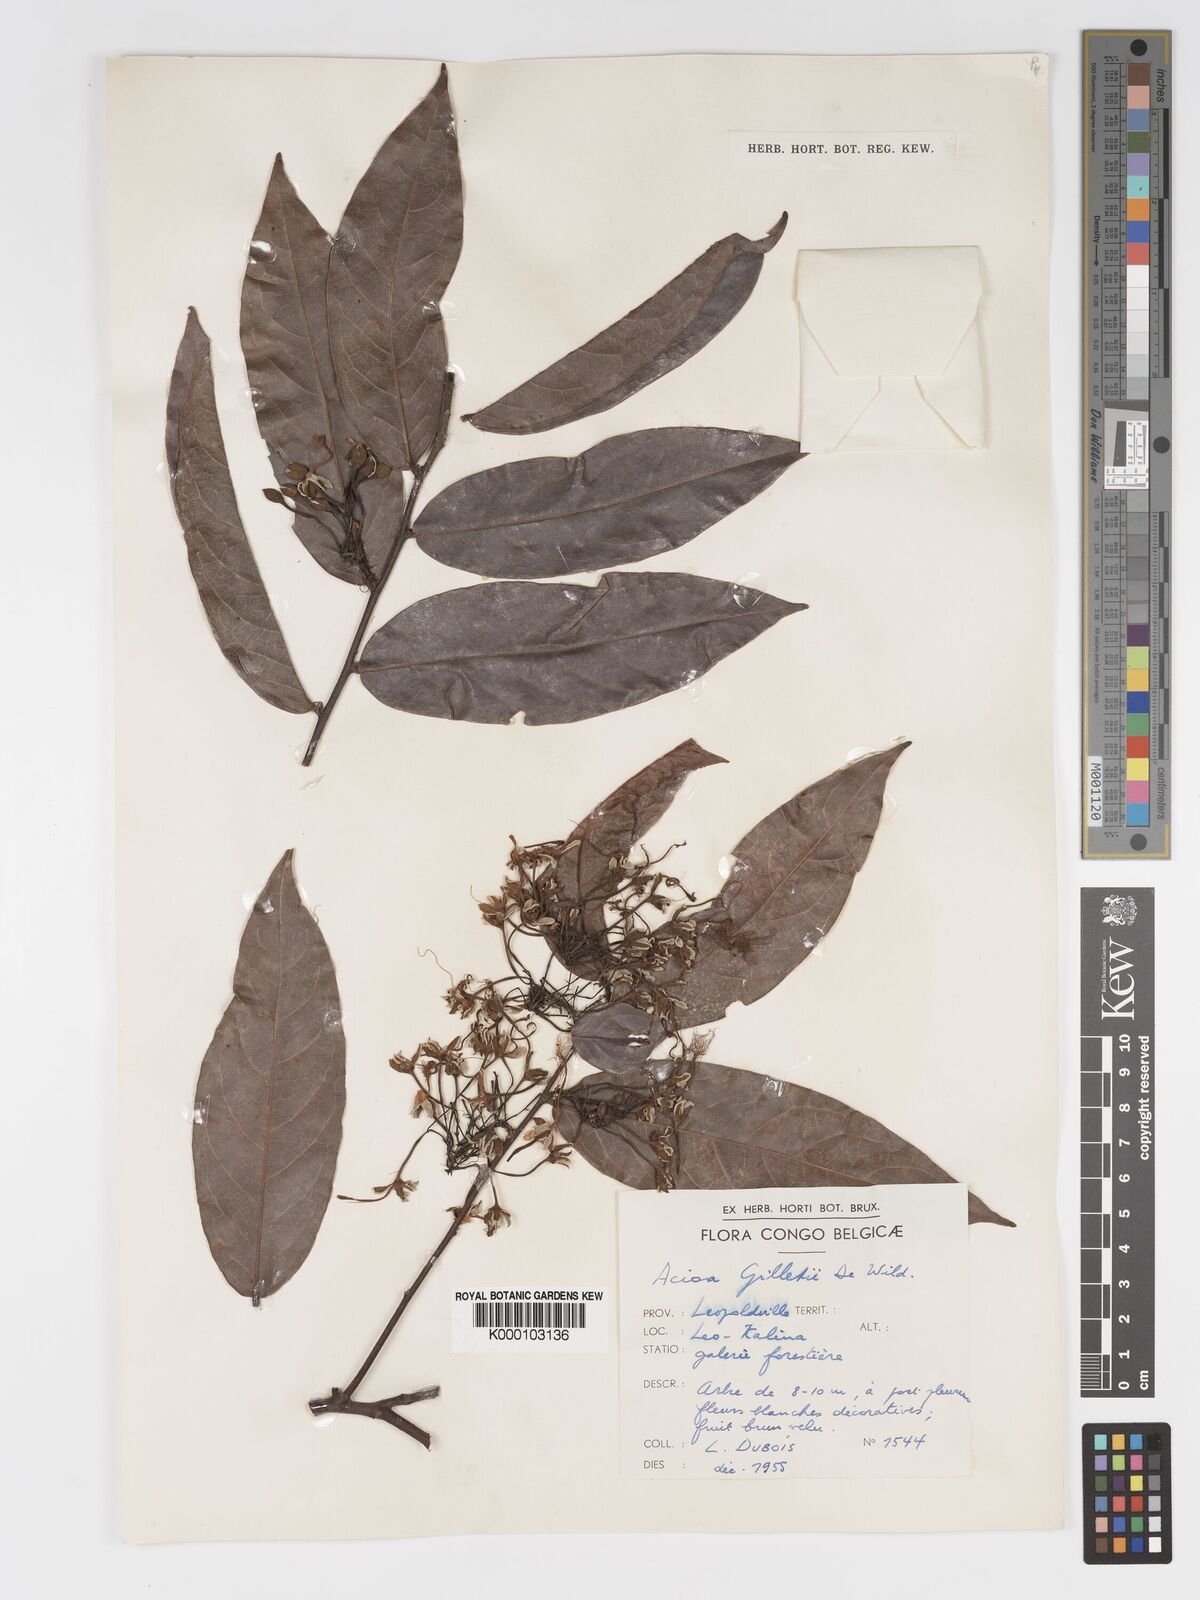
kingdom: Plantae
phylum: Tracheophyta
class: Magnoliopsida
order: Malpighiales
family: Chrysobalanaceae
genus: Dactyladenia
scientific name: Dactyladenia gilletii
